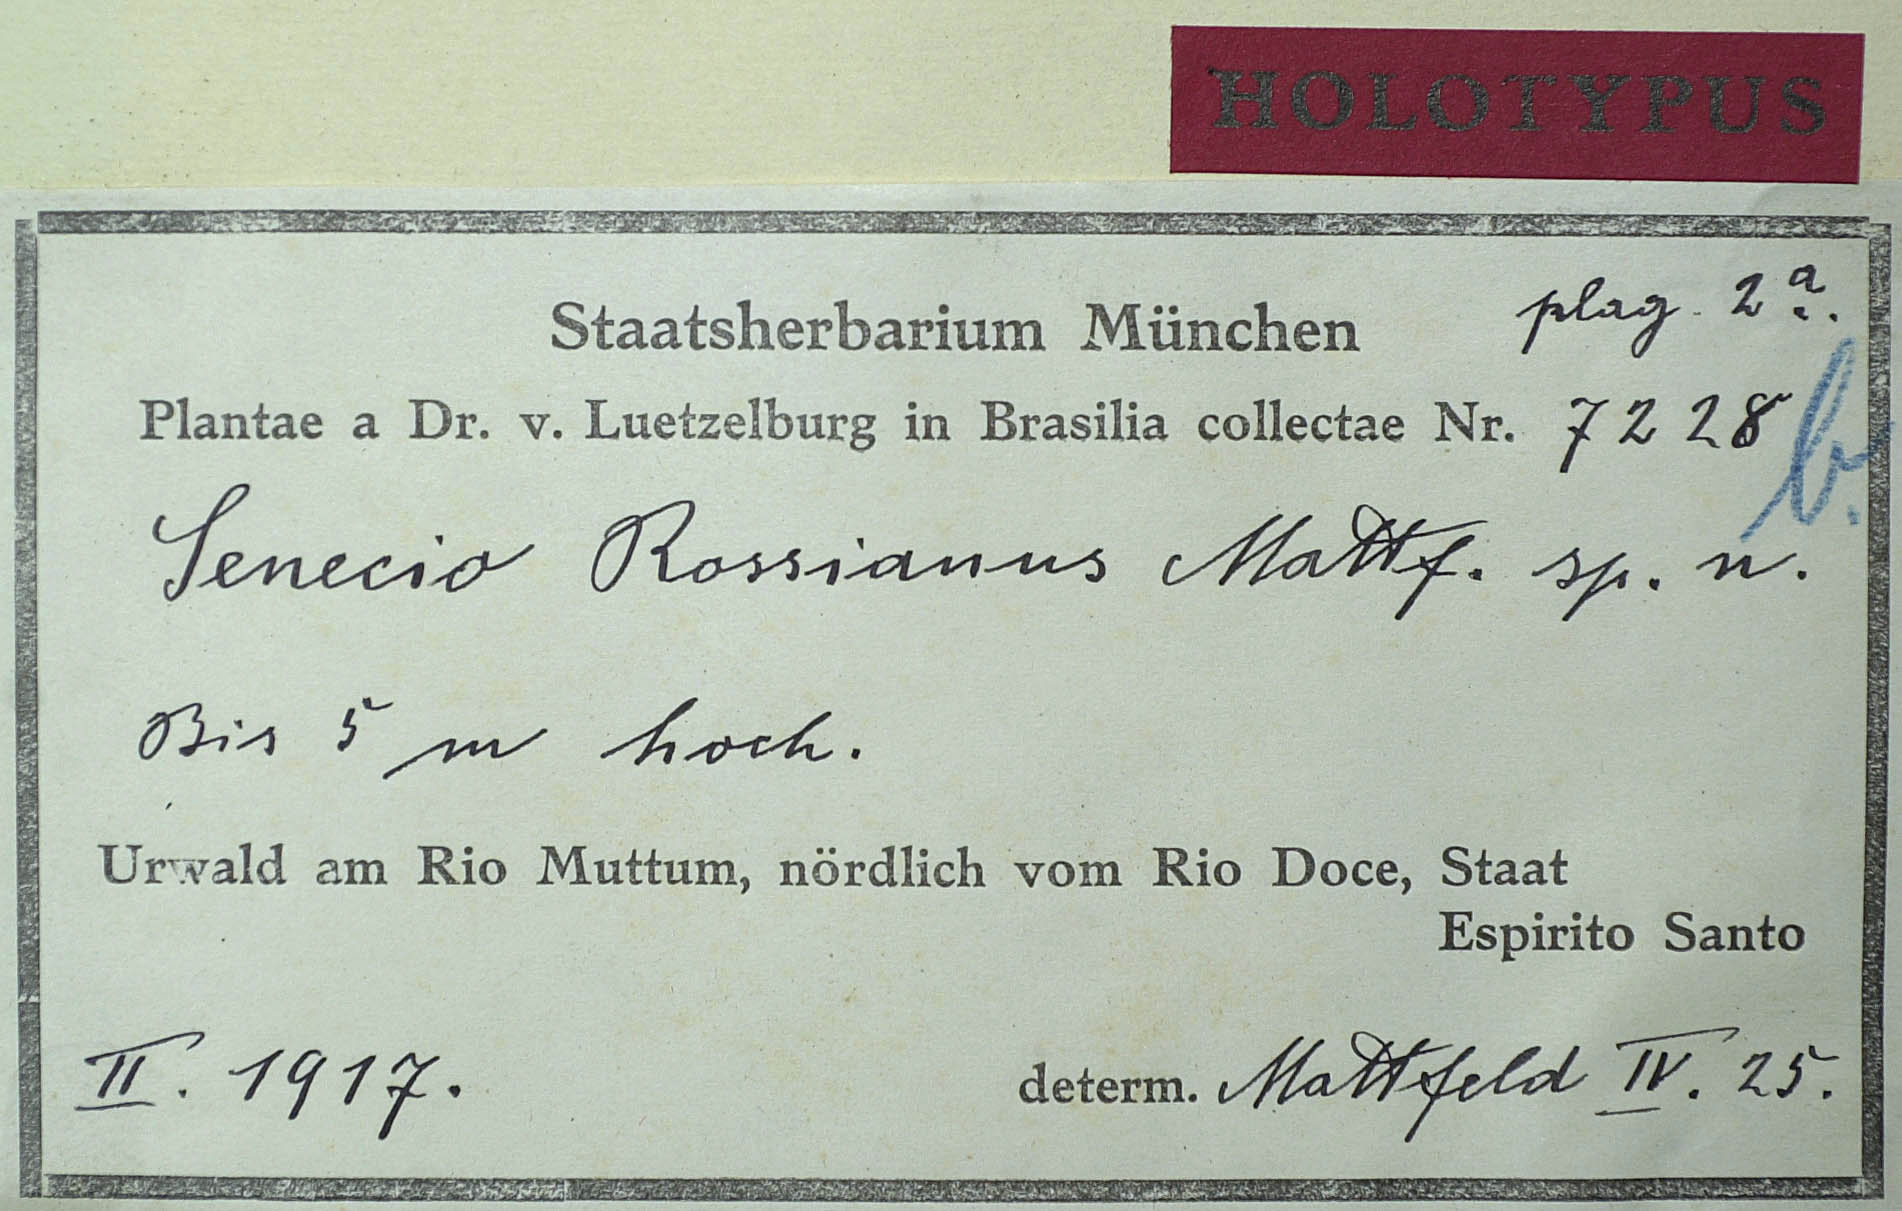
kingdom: Plantae
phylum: Tracheophyta
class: Magnoliopsida
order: Asterales
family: Asteraceae
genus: Senecio
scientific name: Senecio rossianus
